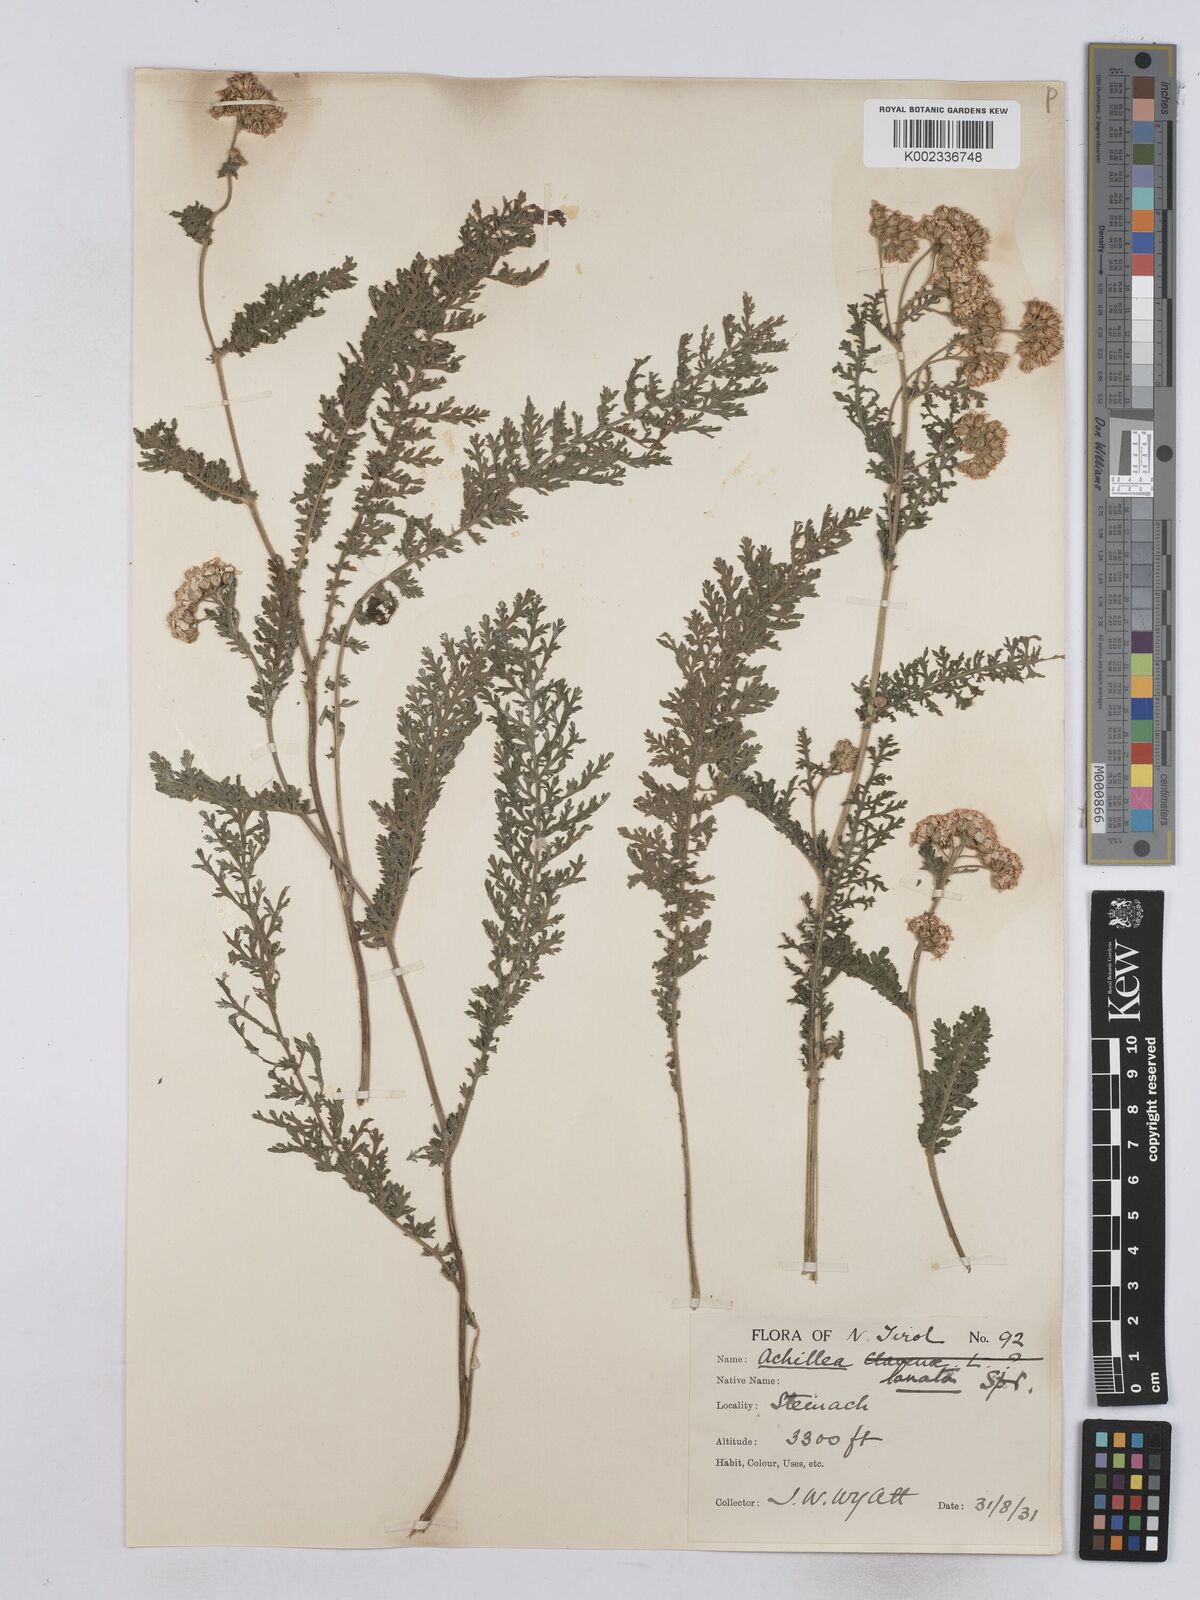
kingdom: Plantae
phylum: Tracheophyta
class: Magnoliopsida
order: Asterales
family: Asteraceae
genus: Achillea
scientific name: Achillea setacea
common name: Bristly yarrow
